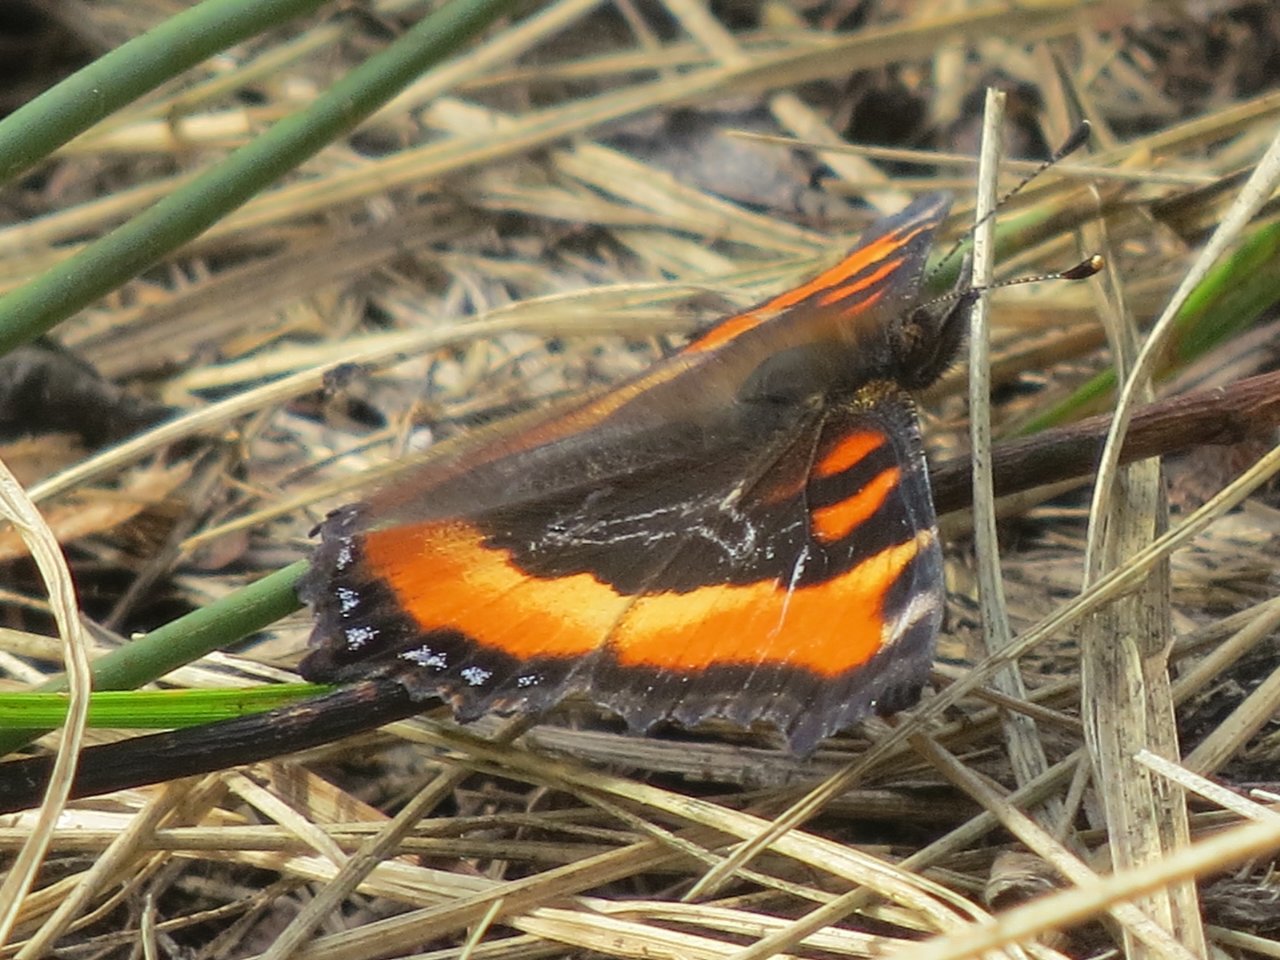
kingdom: Animalia
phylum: Arthropoda
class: Insecta
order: Lepidoptera
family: Nymphalidae
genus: Aglais
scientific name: Aglais milberti
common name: Milbert's Tortoiseshell
